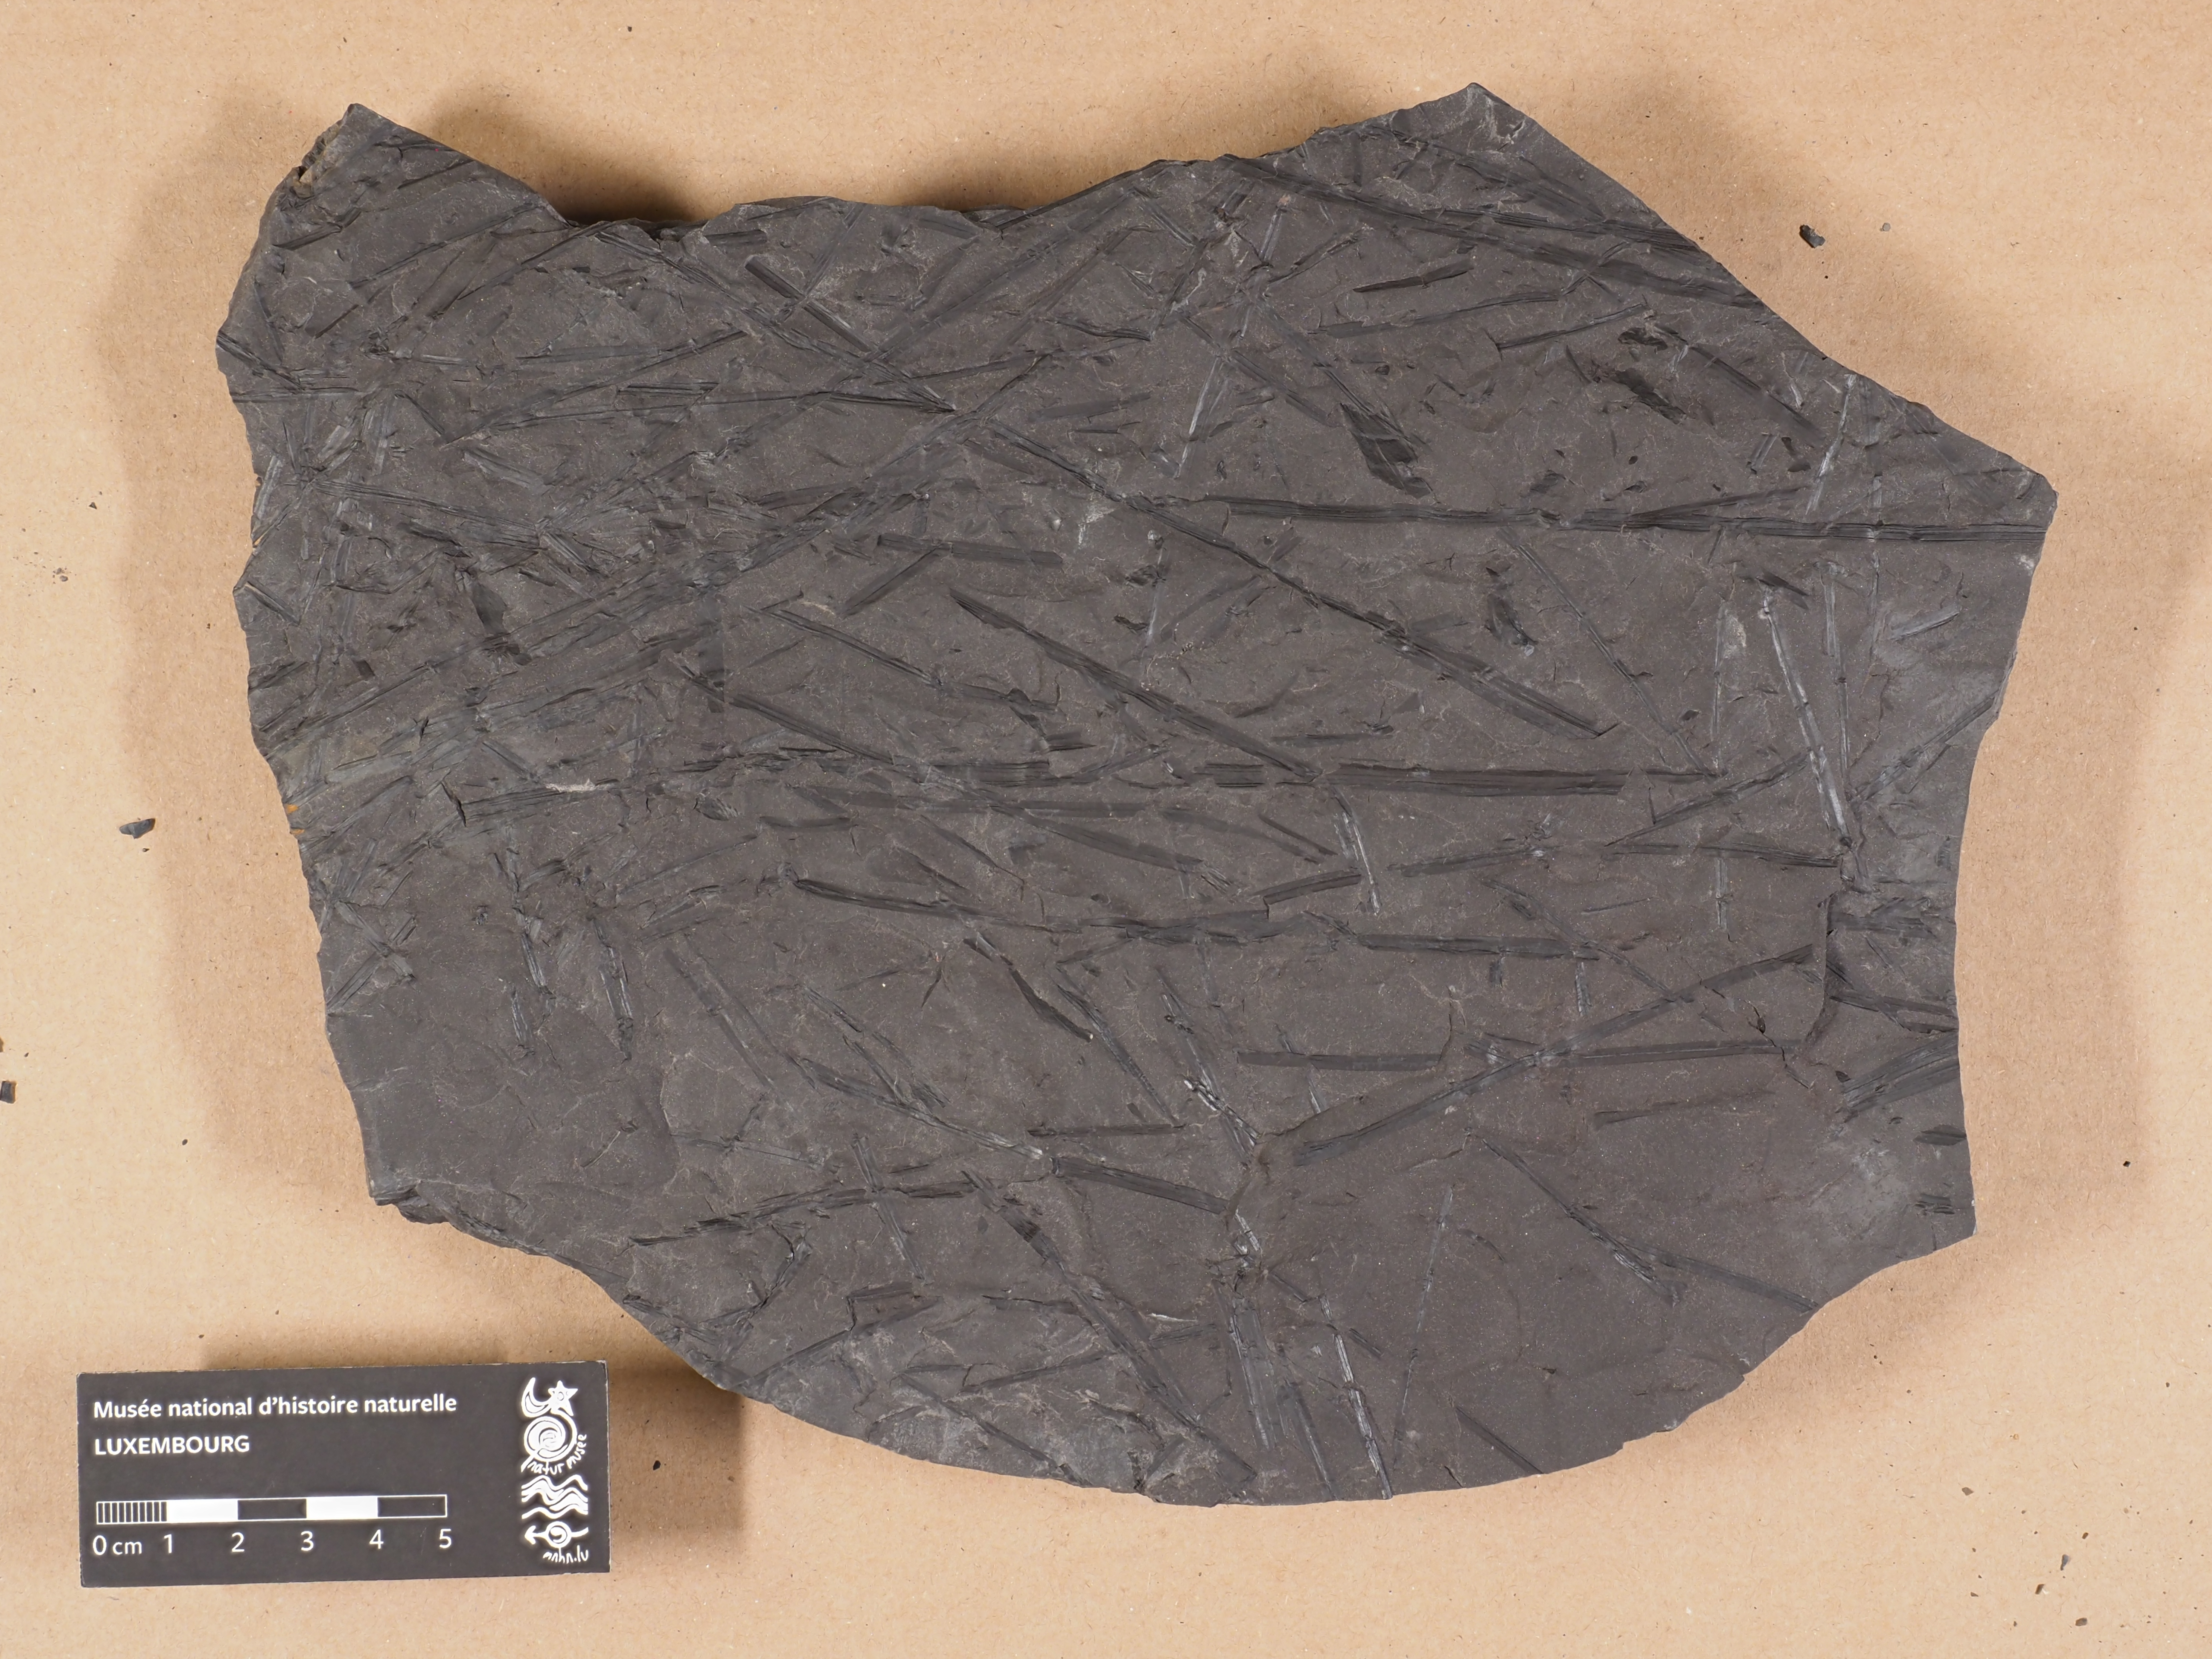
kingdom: Plantae
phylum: Tracheophyta
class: Lycopodiopsida
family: Lepidodendraceae
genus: Lepidodendron
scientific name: Lepidodendron
